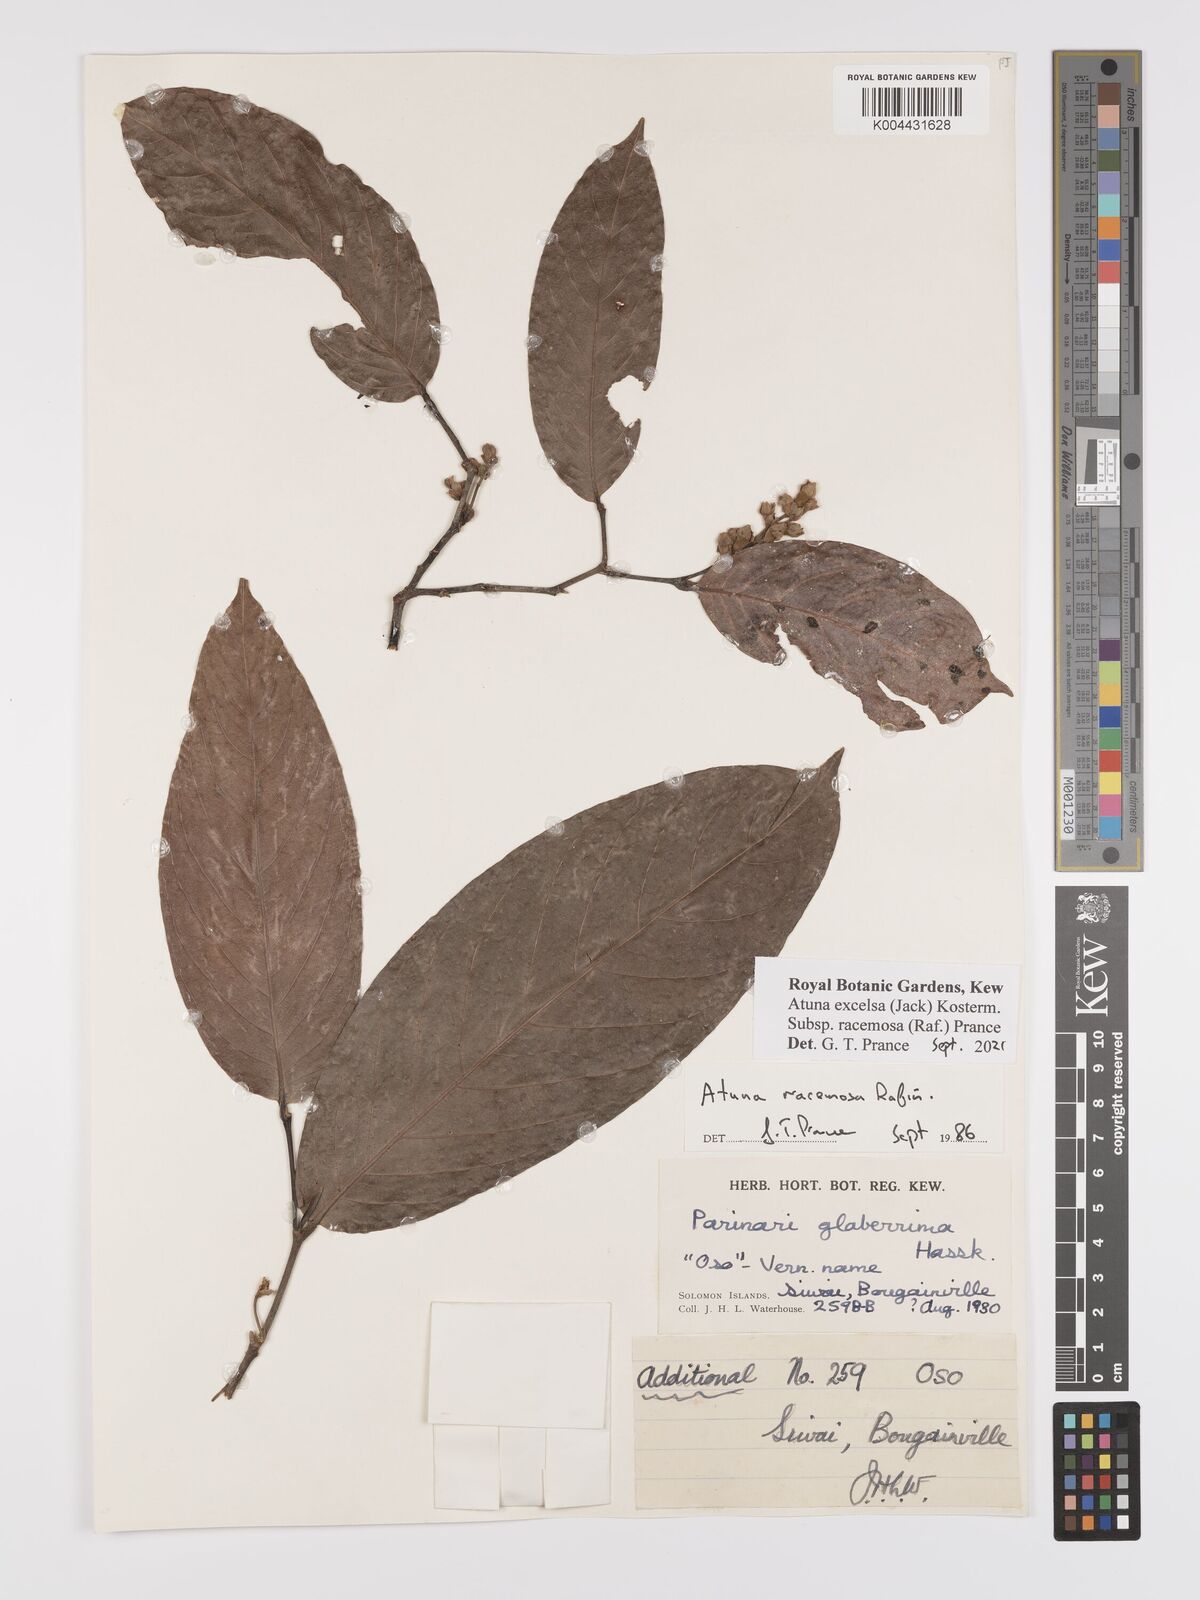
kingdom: Plantae
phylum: Tracheophyta
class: Magnoliopsida
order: Malpighiales
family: Chrysobalanaceae
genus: Atuna
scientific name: Atuna excelsa
